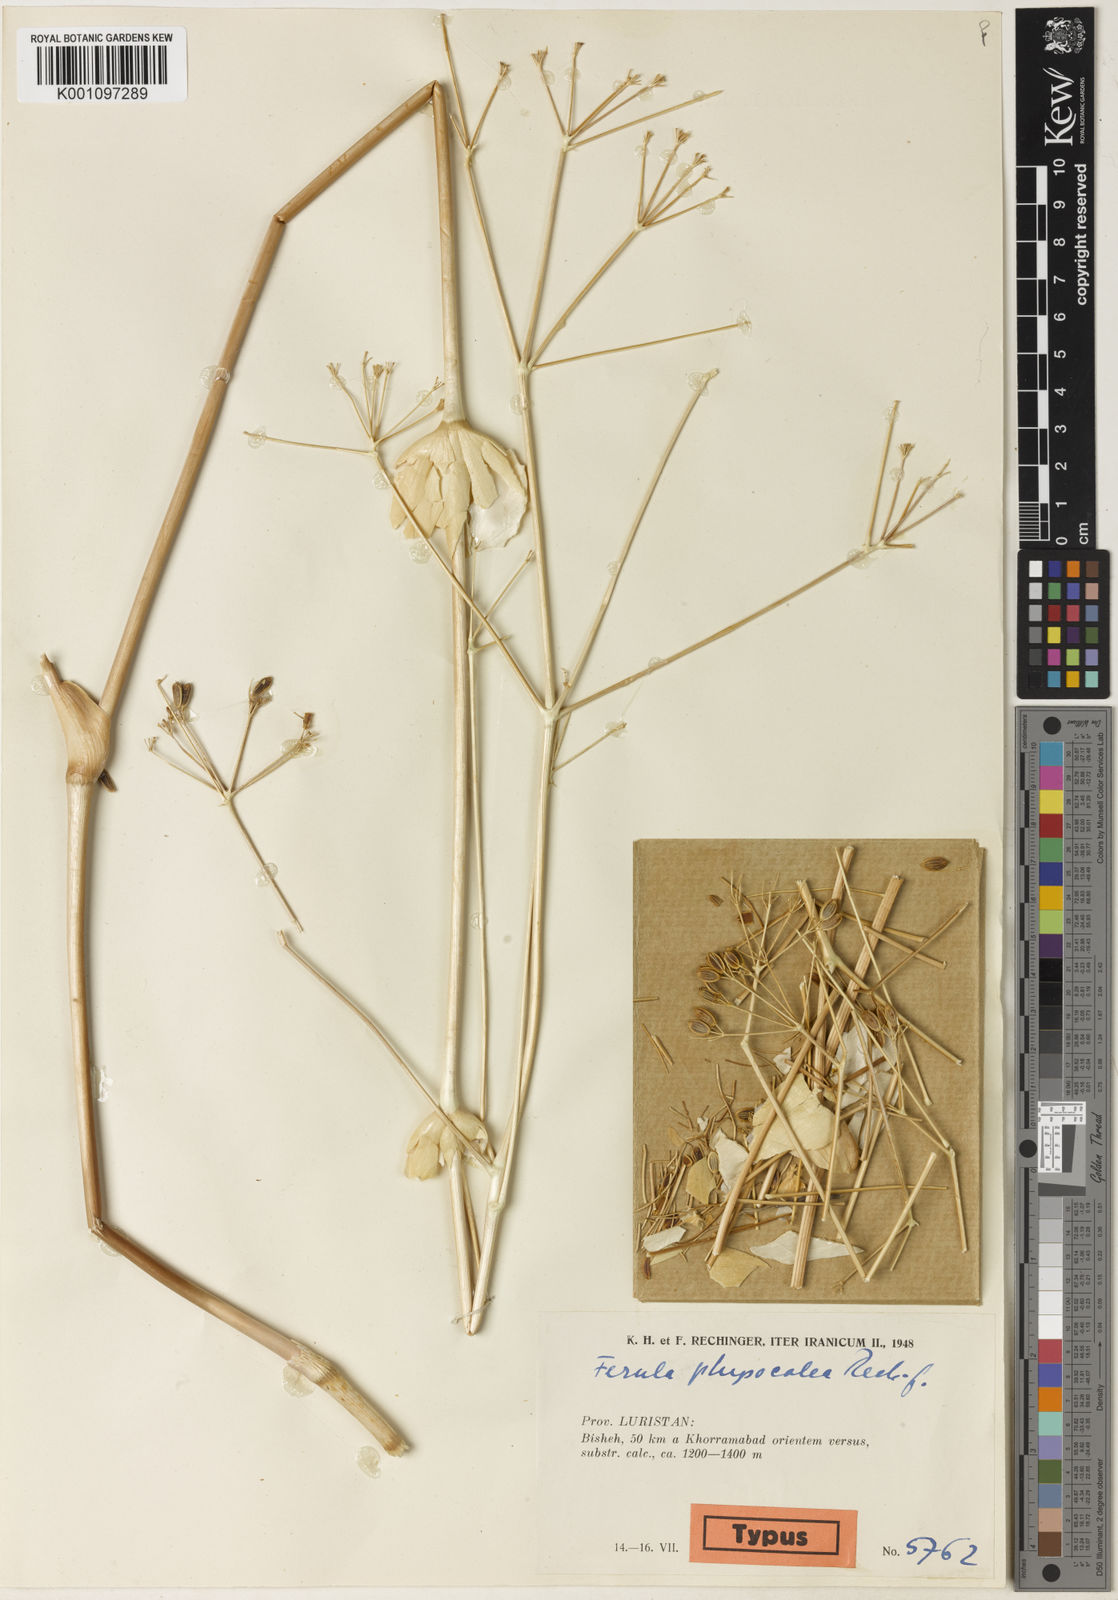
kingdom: Plantae
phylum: Tracheophyta
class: Magnoliopsida
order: Apiales
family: Apiaceae
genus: Ferula
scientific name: Ferula haussknechtii
